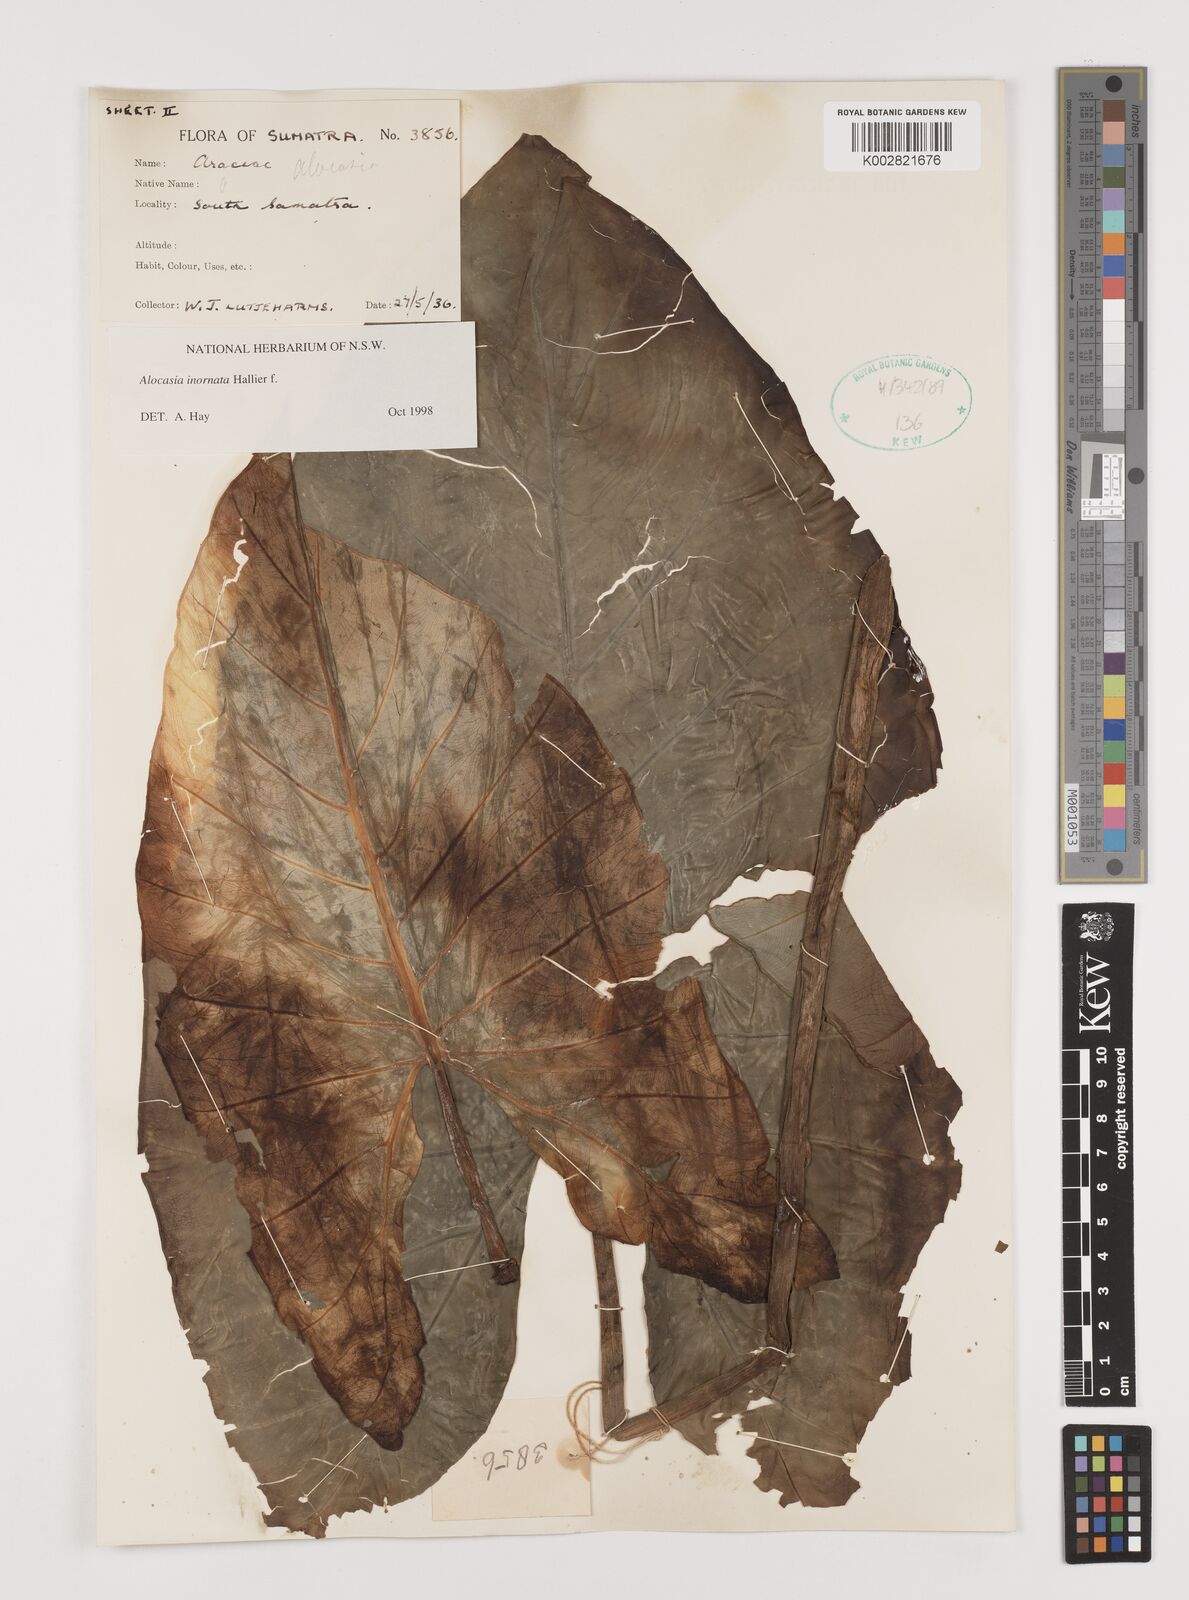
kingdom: Plantae
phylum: Tracheophyta
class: Liliopsida
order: Alismatales
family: Araceae
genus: Alocasia
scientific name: Alocasia inornata
